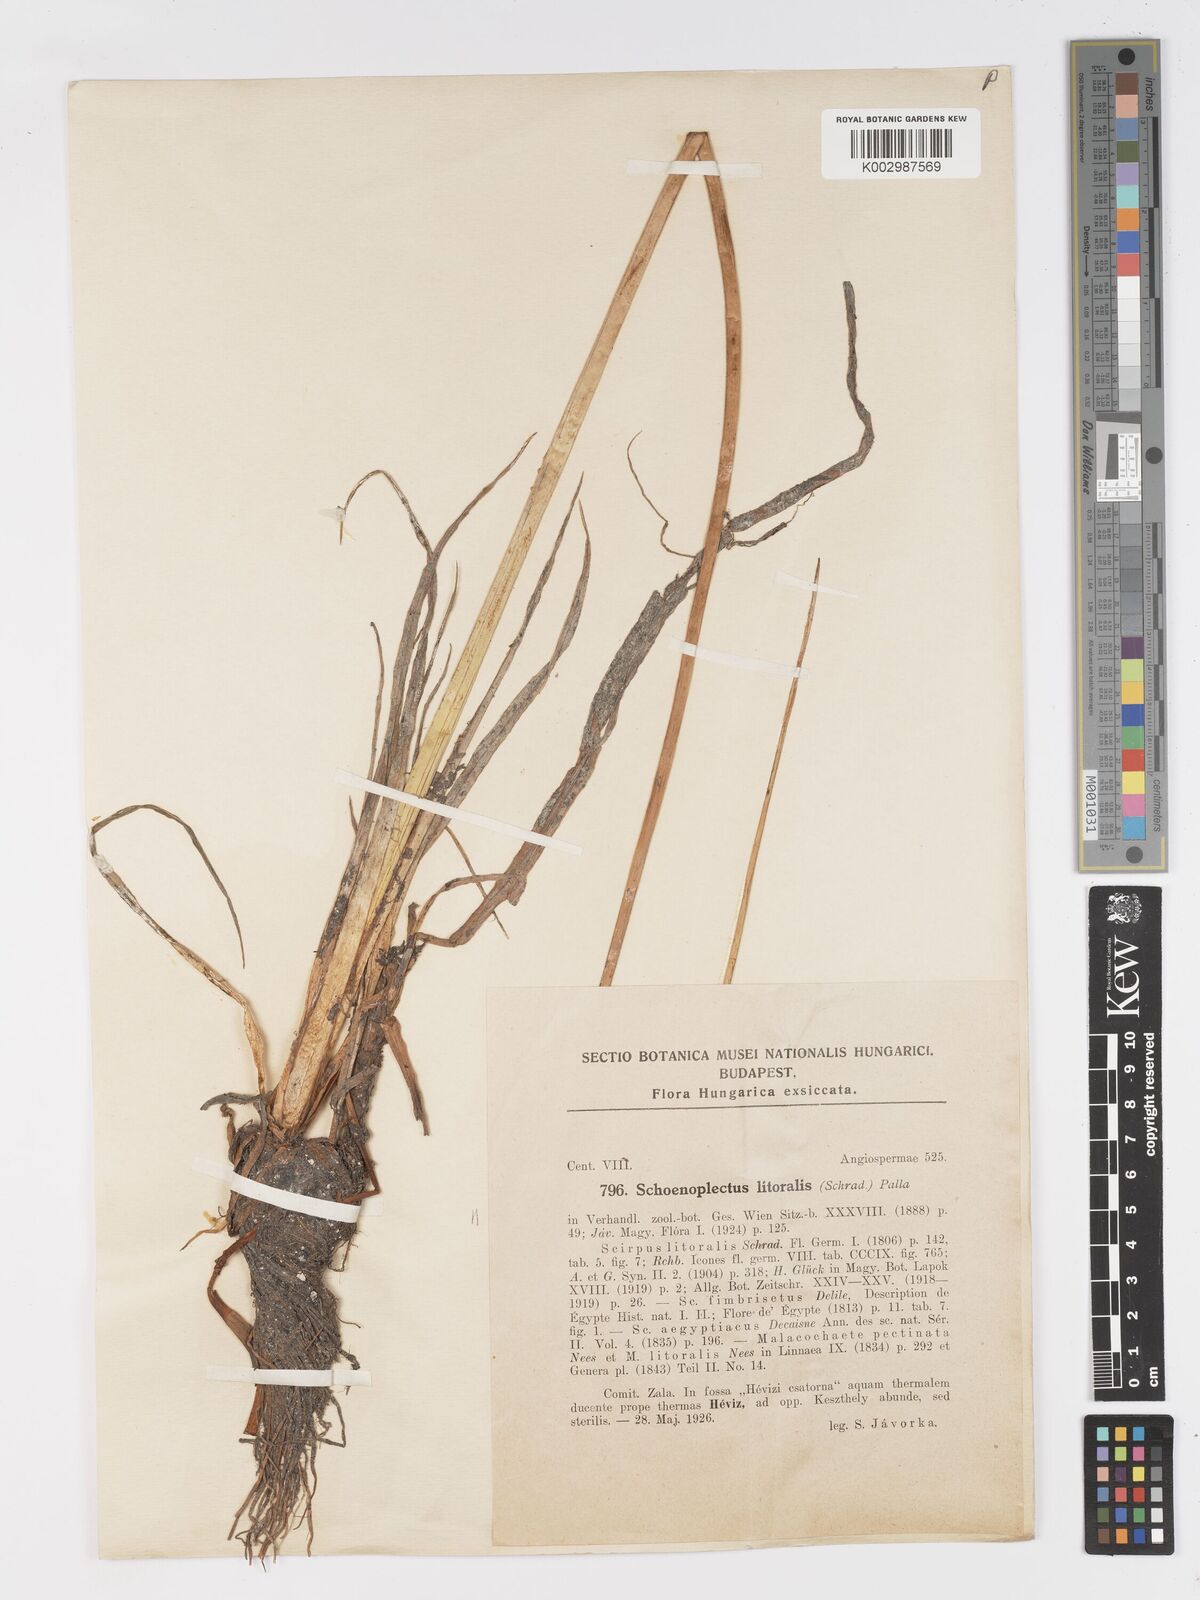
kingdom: Plantae
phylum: Tracheophyta
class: Liliopsida
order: Poales
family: Cyperaceae
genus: Schoenoplectus
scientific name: Schoenoplectus litoralis
